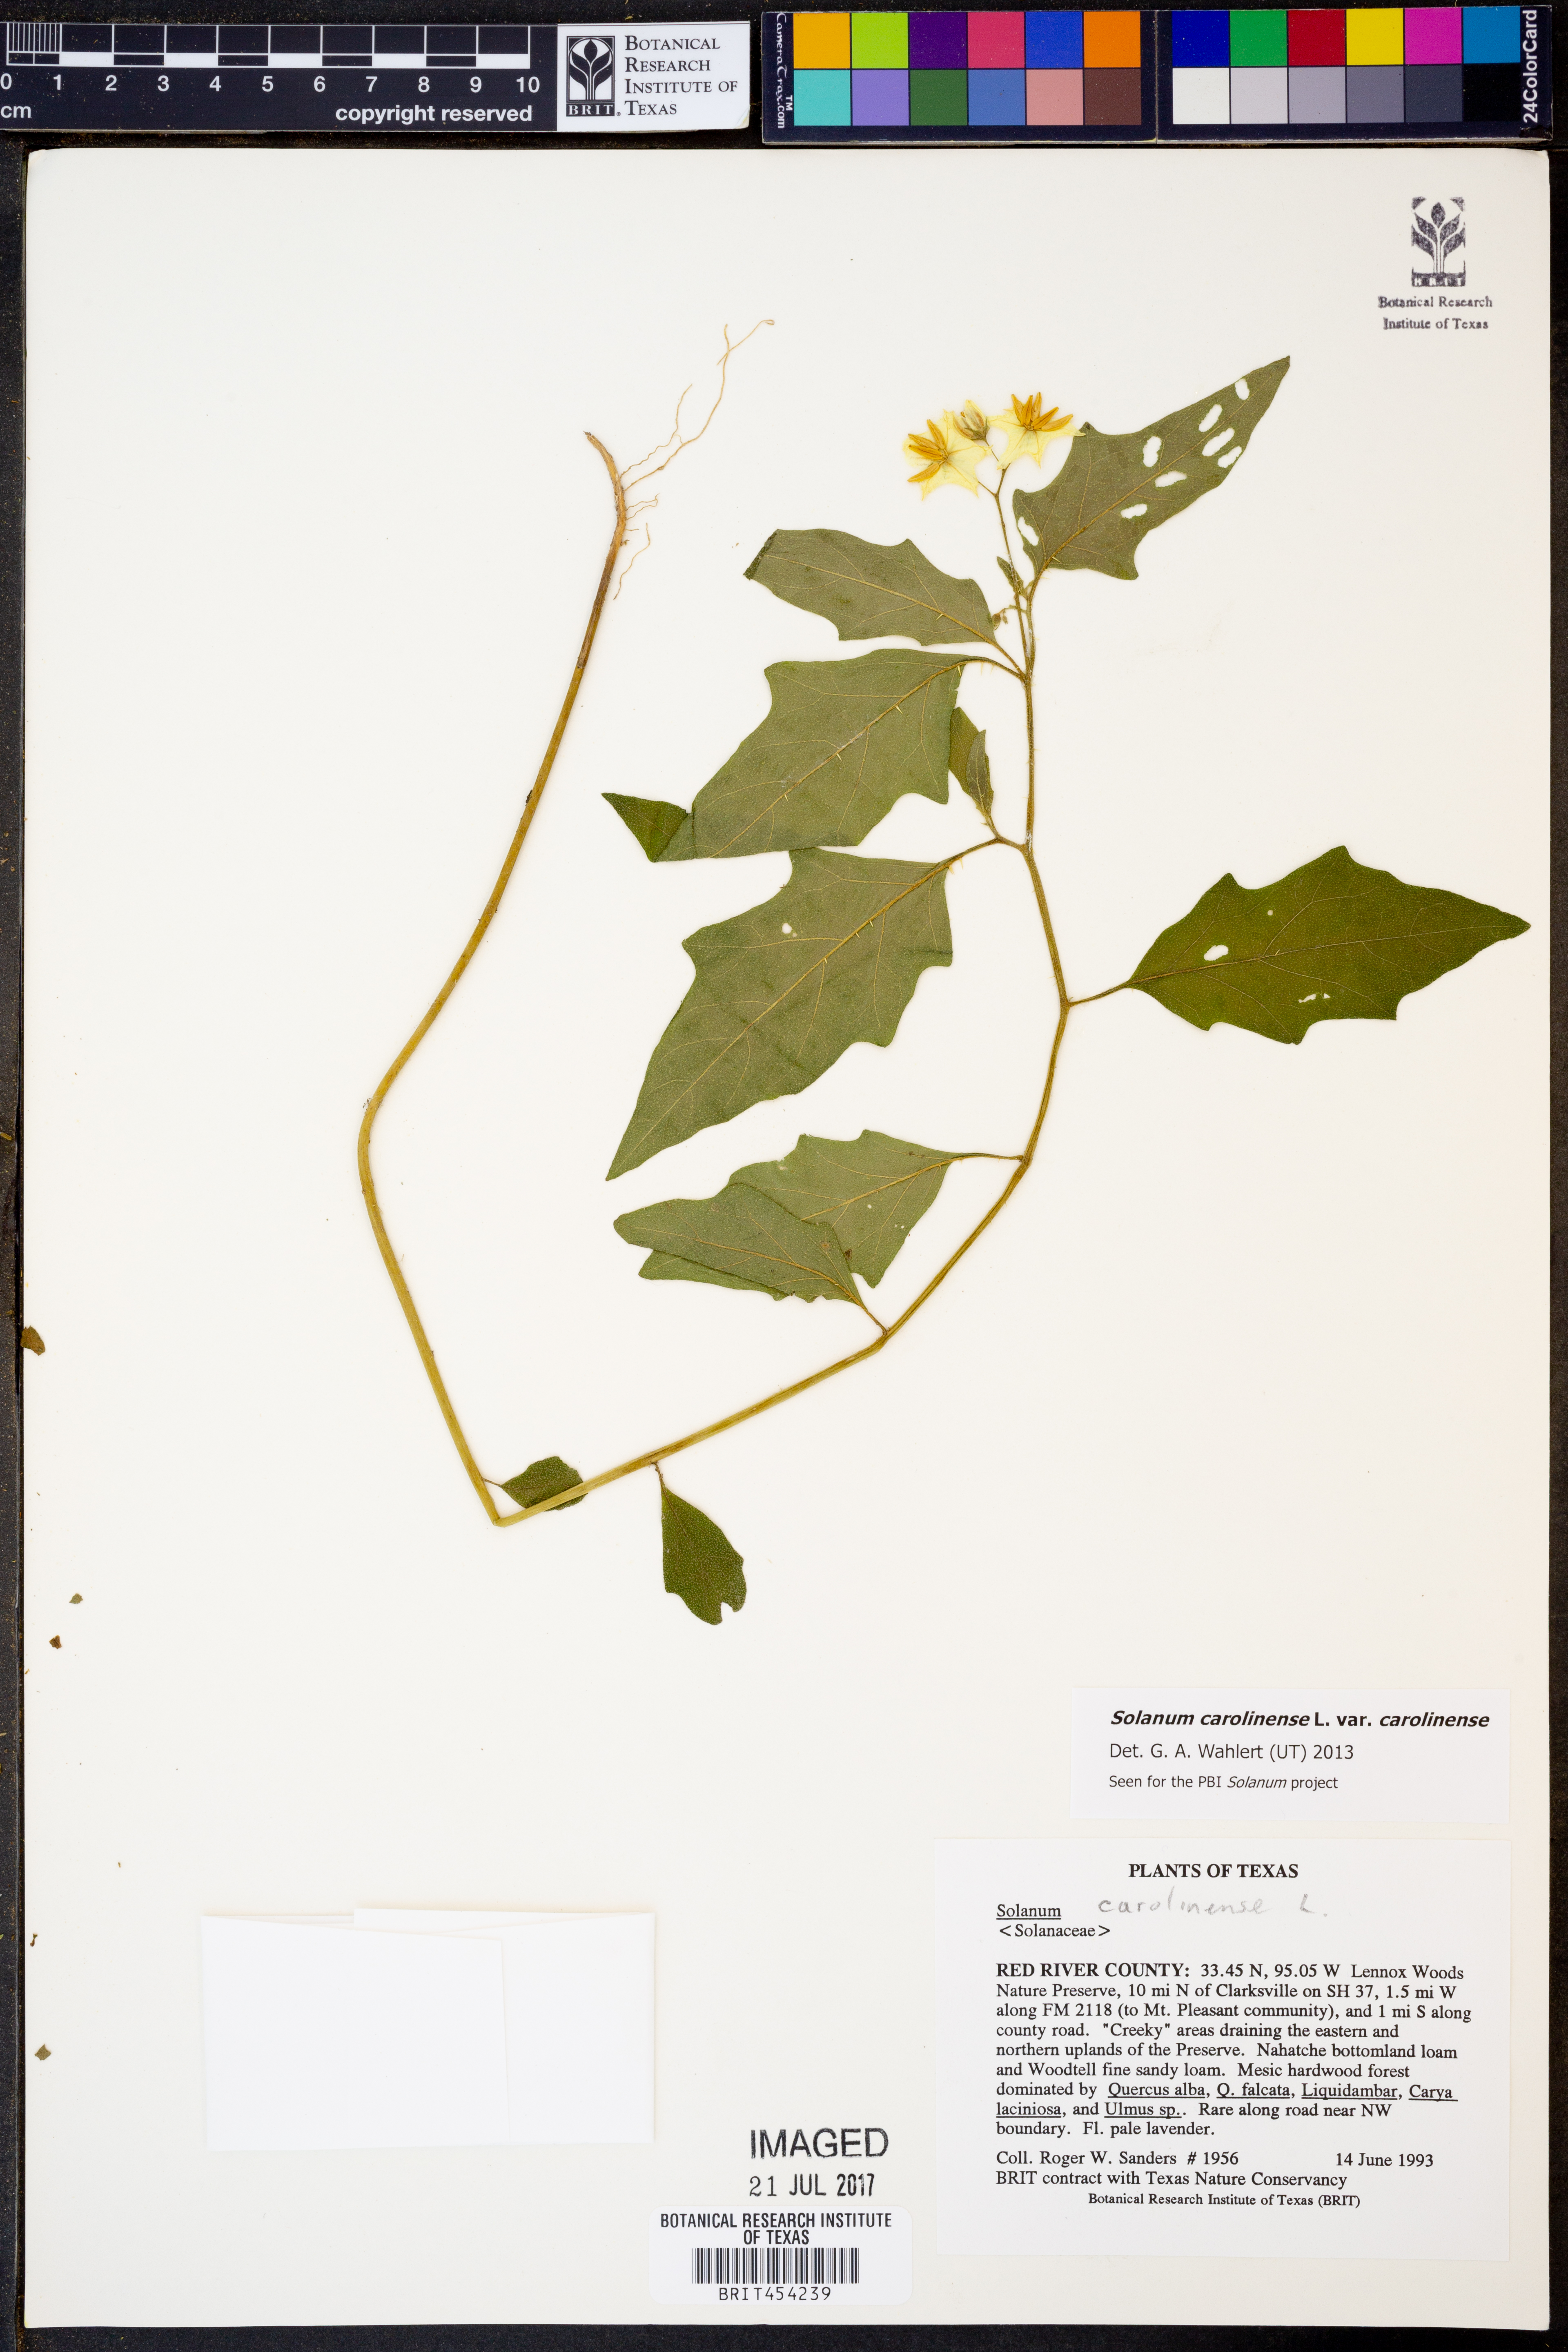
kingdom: Plantae
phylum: Tracheophyta
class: Magnoliopsida
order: Solanales
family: Solanaceae
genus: Solanum
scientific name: Solanum carolinense
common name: Horse-nettle
